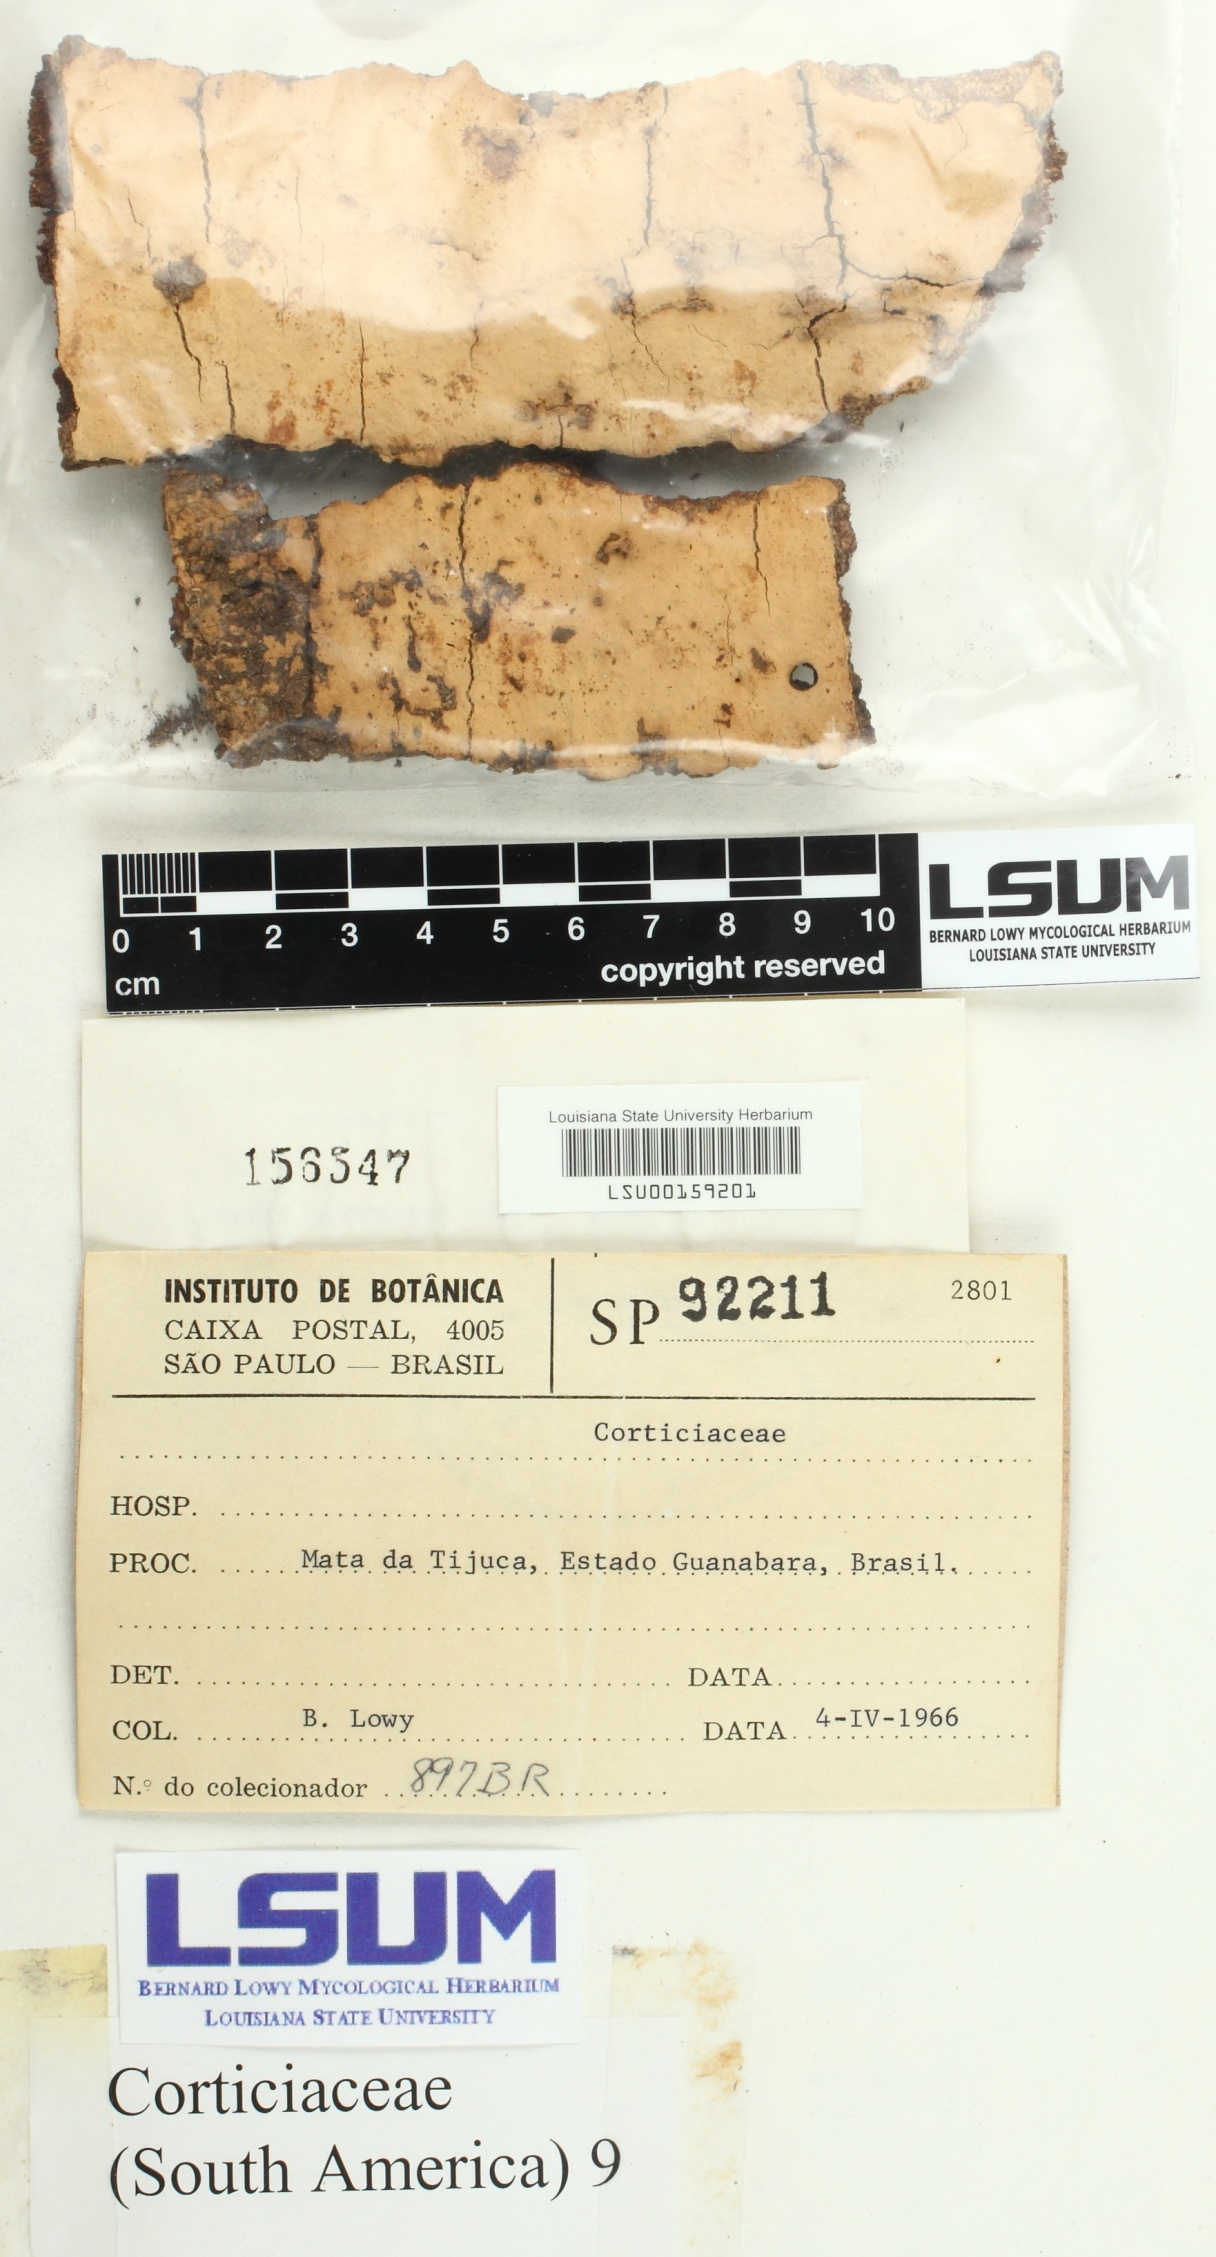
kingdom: Fungi
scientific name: Fungi
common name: Fungi
